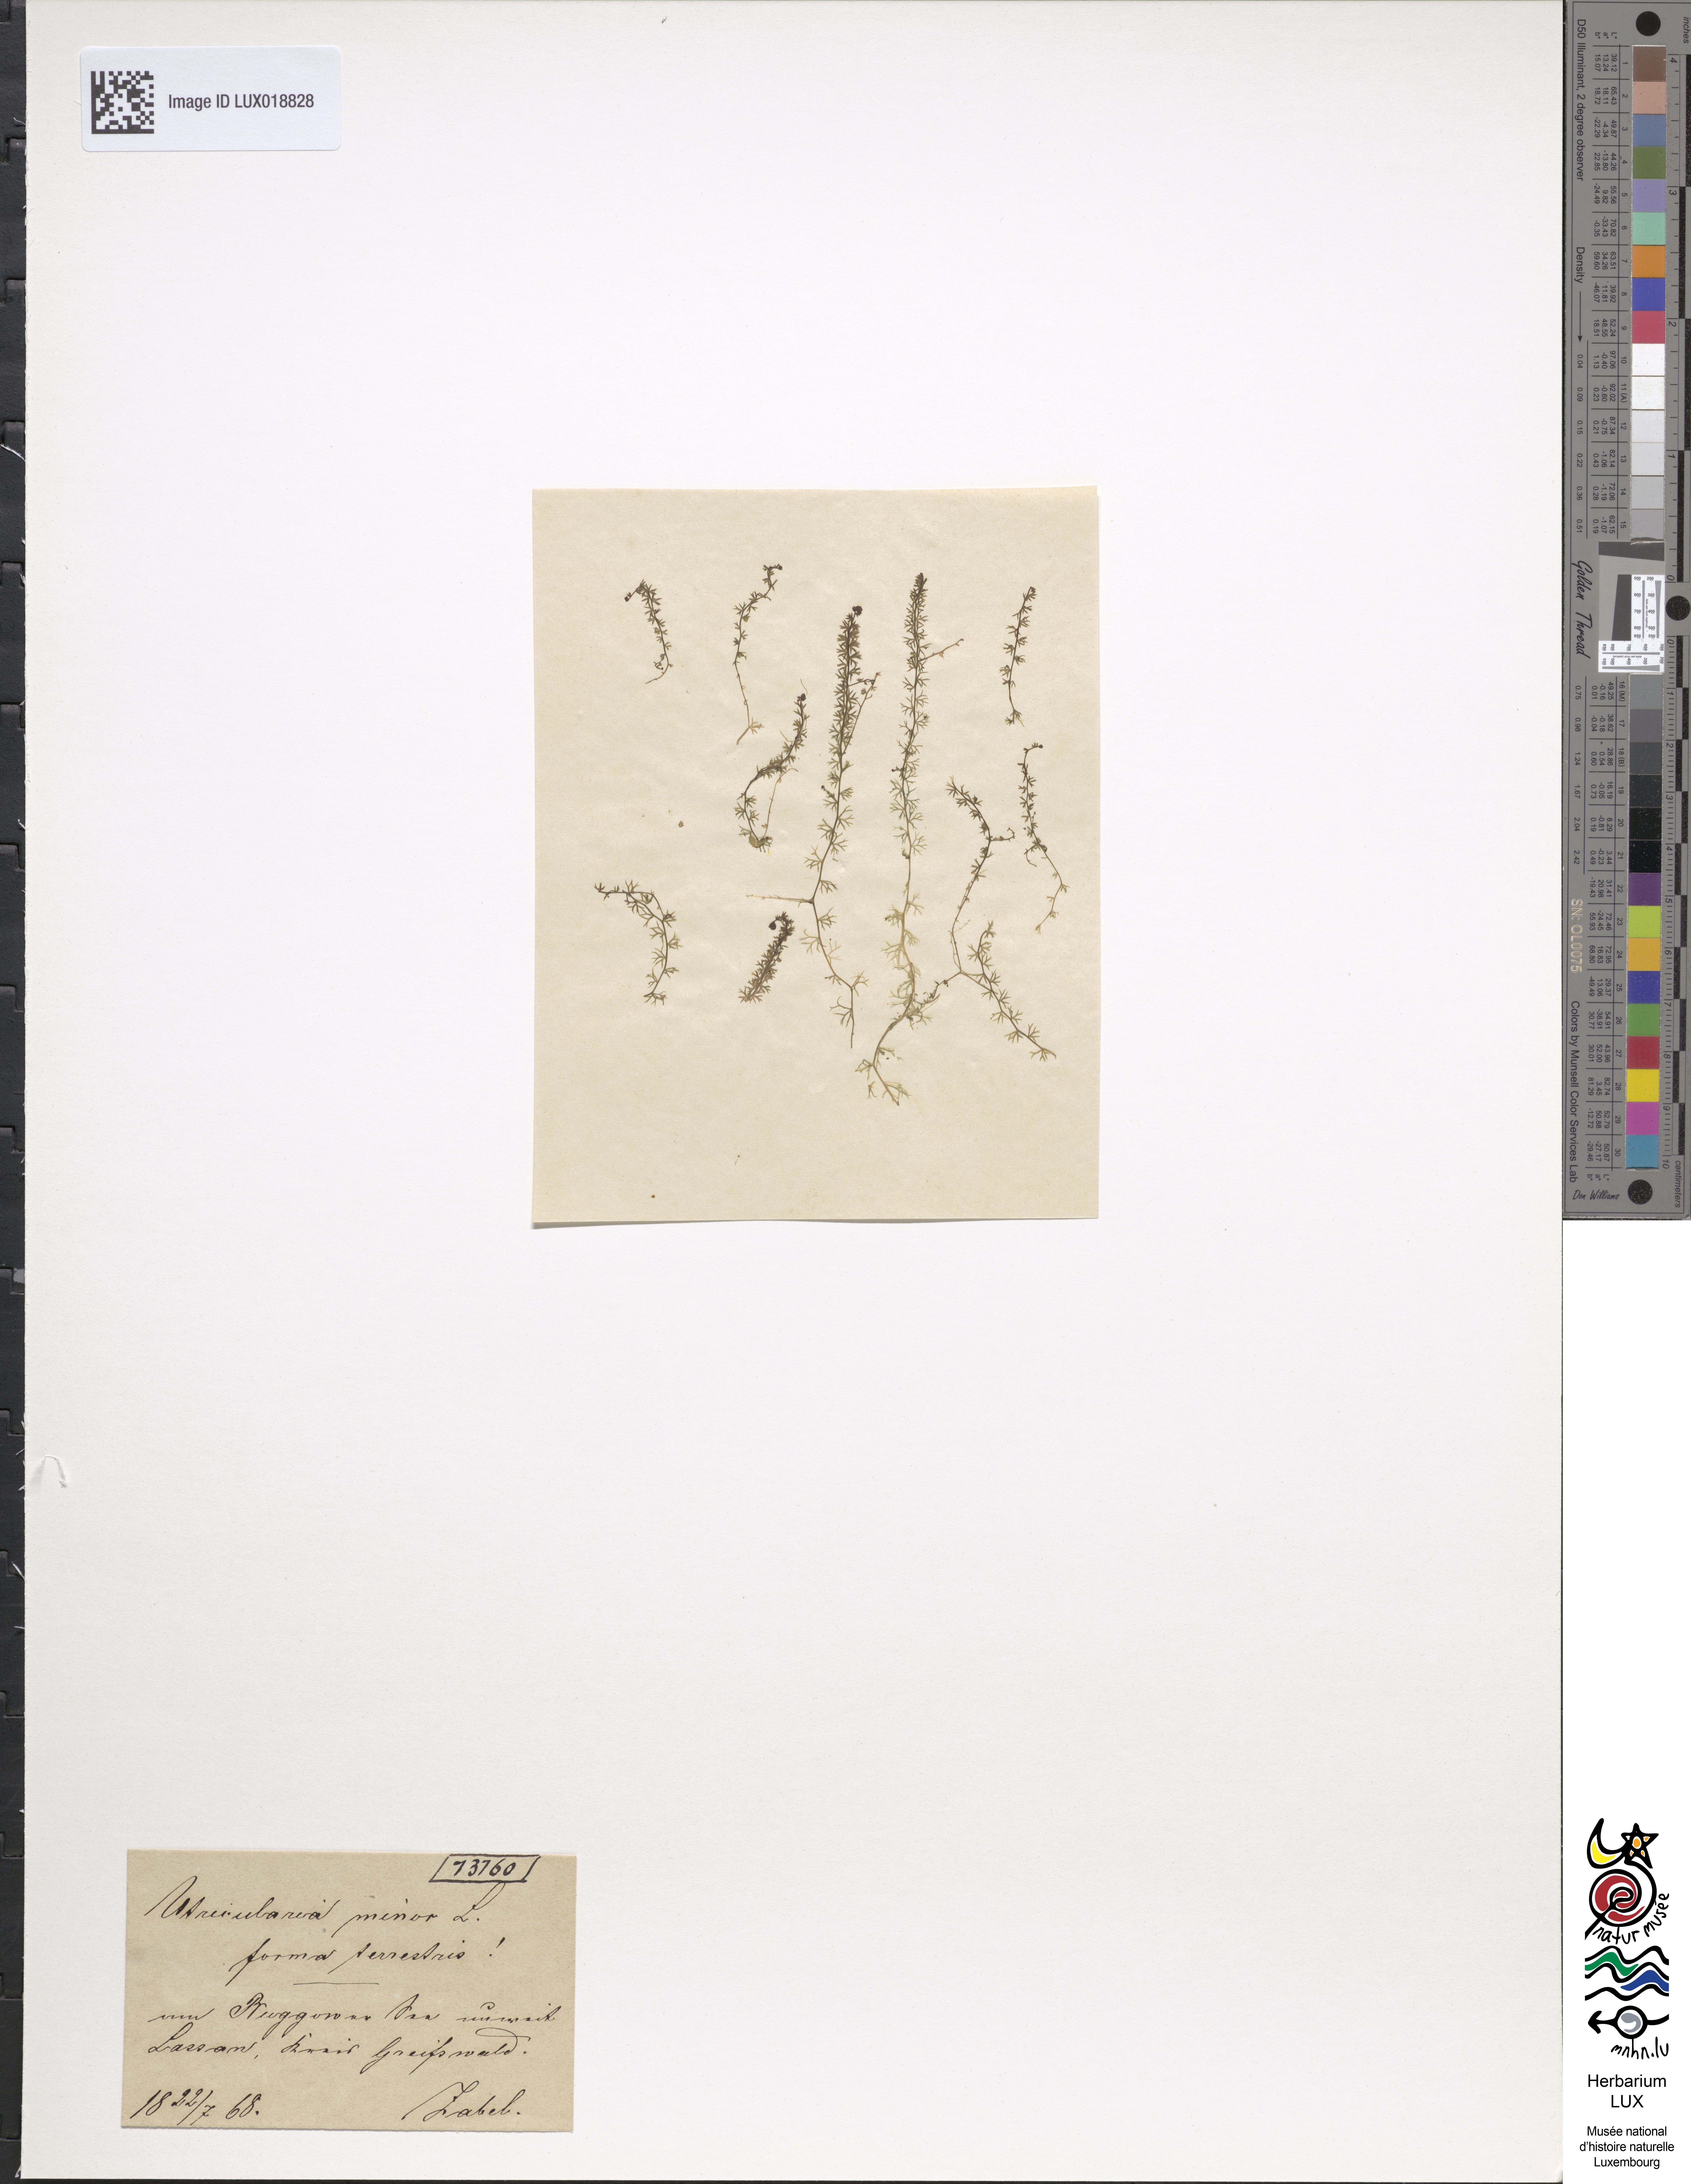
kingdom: Plantae
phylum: Tracheophyta
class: Magnoliopsida
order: Lamiales
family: Lentibulariaceae
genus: Utricularia
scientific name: Utricularia minor
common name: Lesser bladderwort
